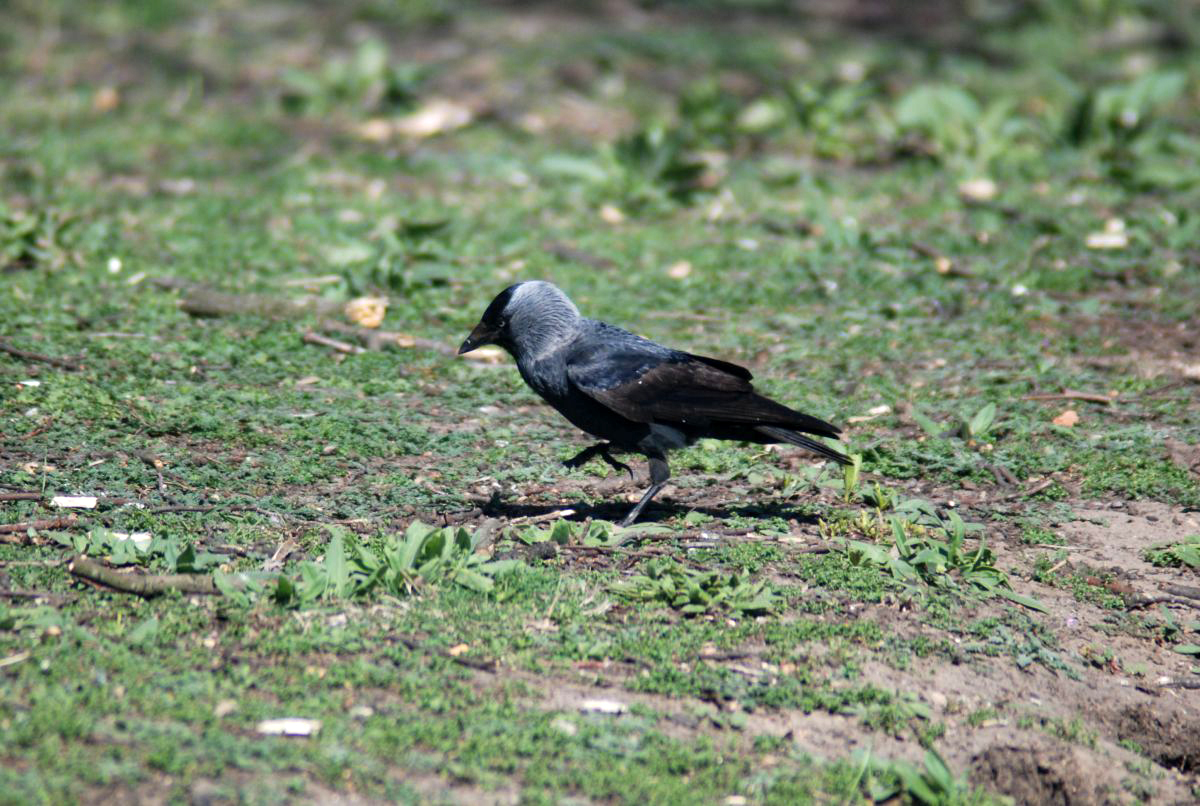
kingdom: Animalia
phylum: Chordata
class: Aves
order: Passeriformes
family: Corvidae
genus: Coloeus
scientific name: Coloeus monedula
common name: Western jackdaw
